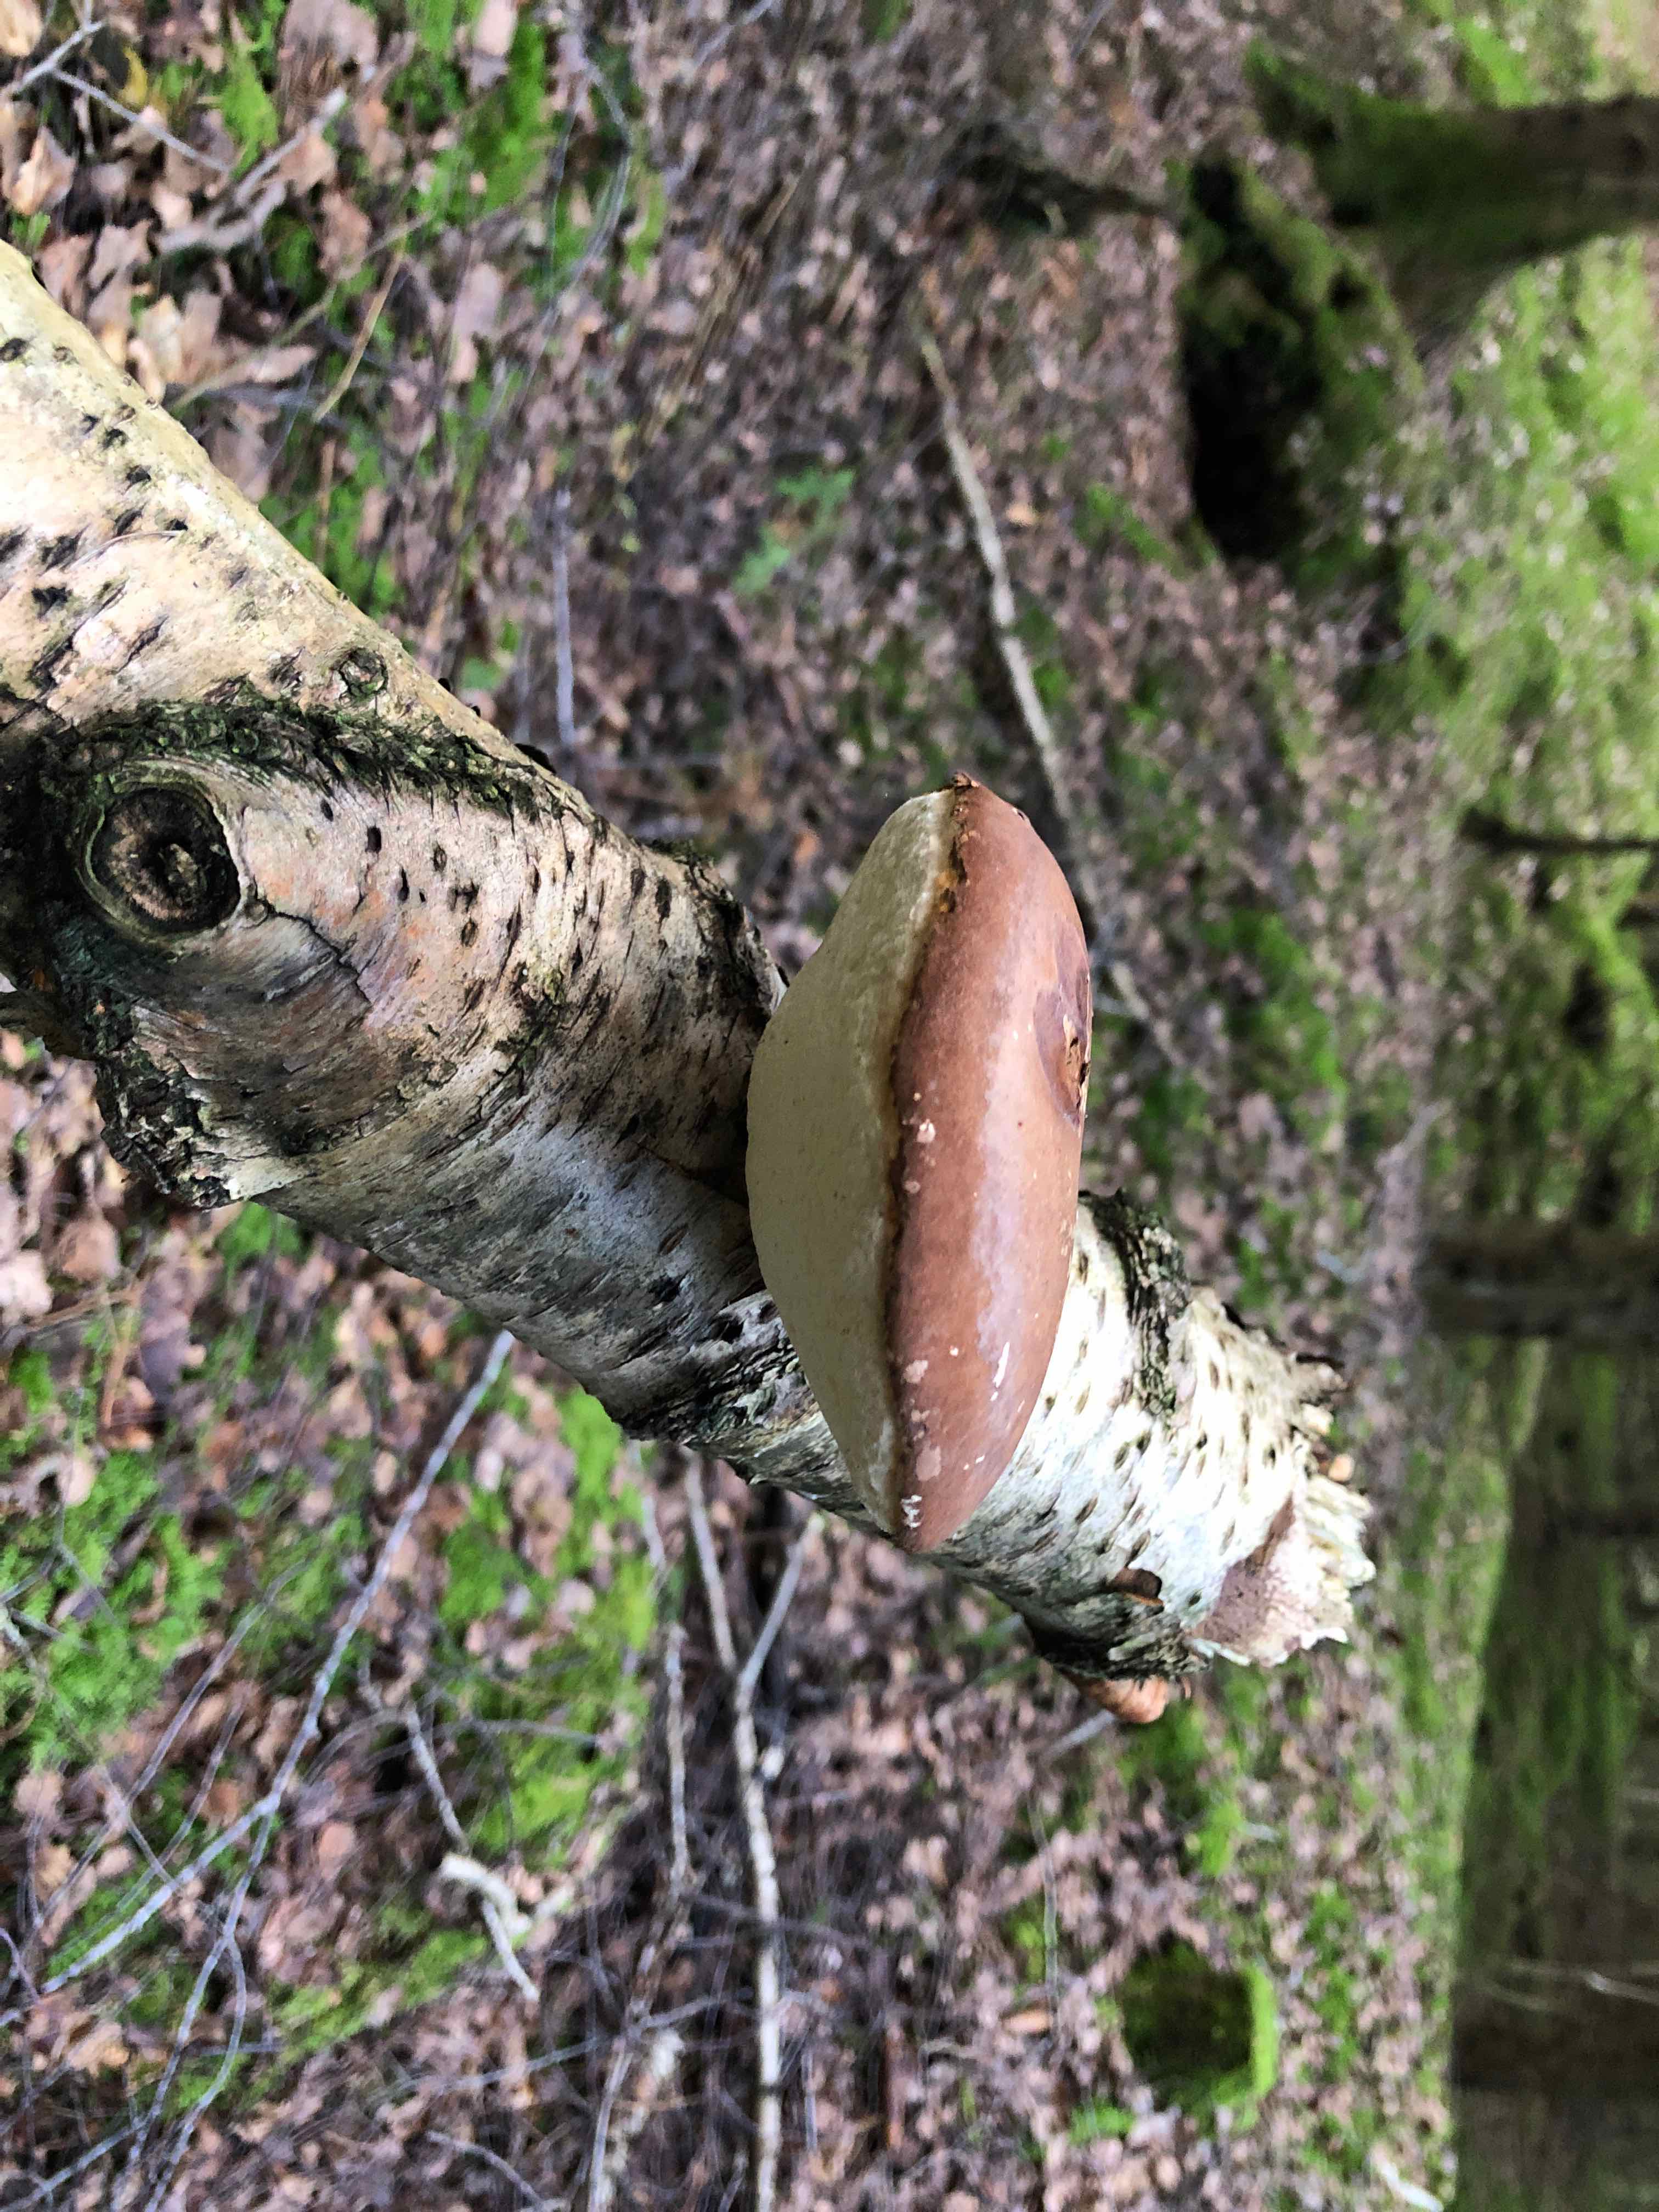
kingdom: Fungi
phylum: Basidiomycota
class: Agaricomycetes
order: Polyporales
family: Fomitopsidaceae
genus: Fomitopsis
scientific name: Fomitopsis betulina
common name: birkeporesvamp
